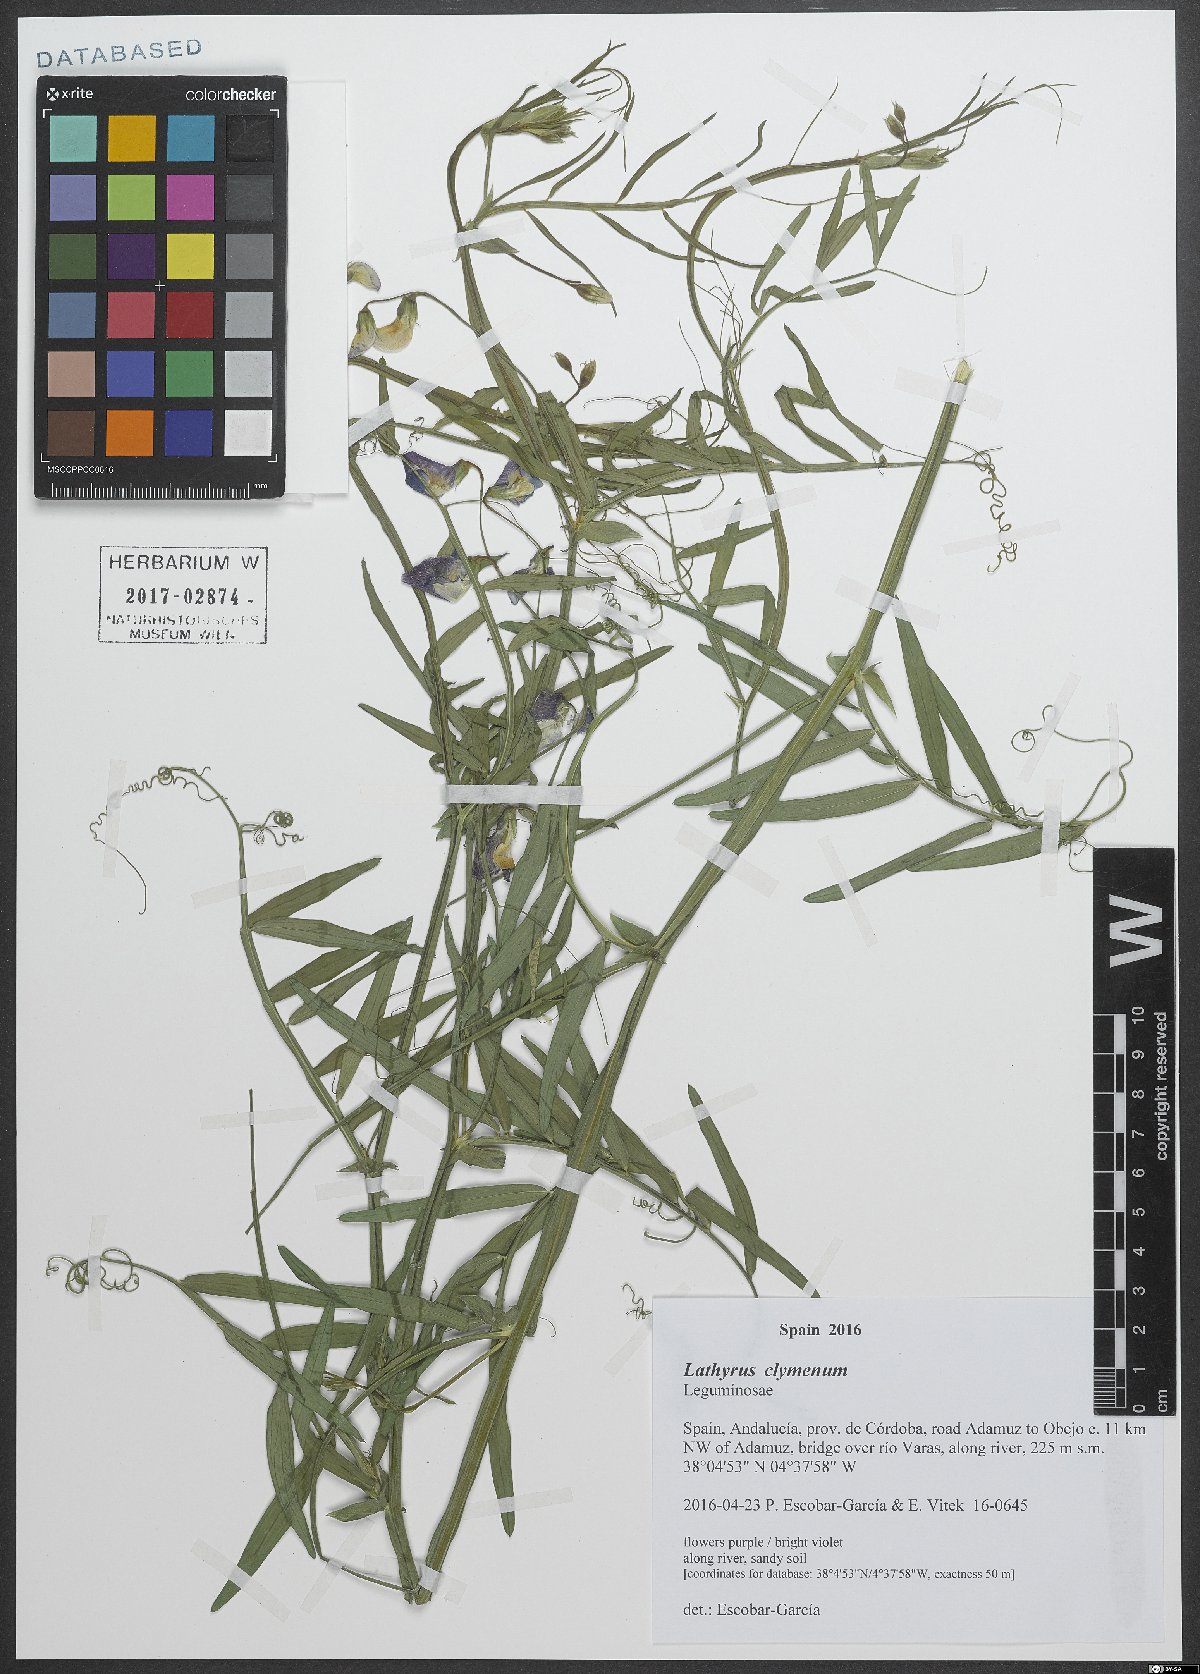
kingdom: Plantae
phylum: Tracheophyta
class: Magnoliopsida
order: Fabales
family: Fabaceae
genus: Lathyrus
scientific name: Lathyrus clymenum
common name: Spanish vetchling
